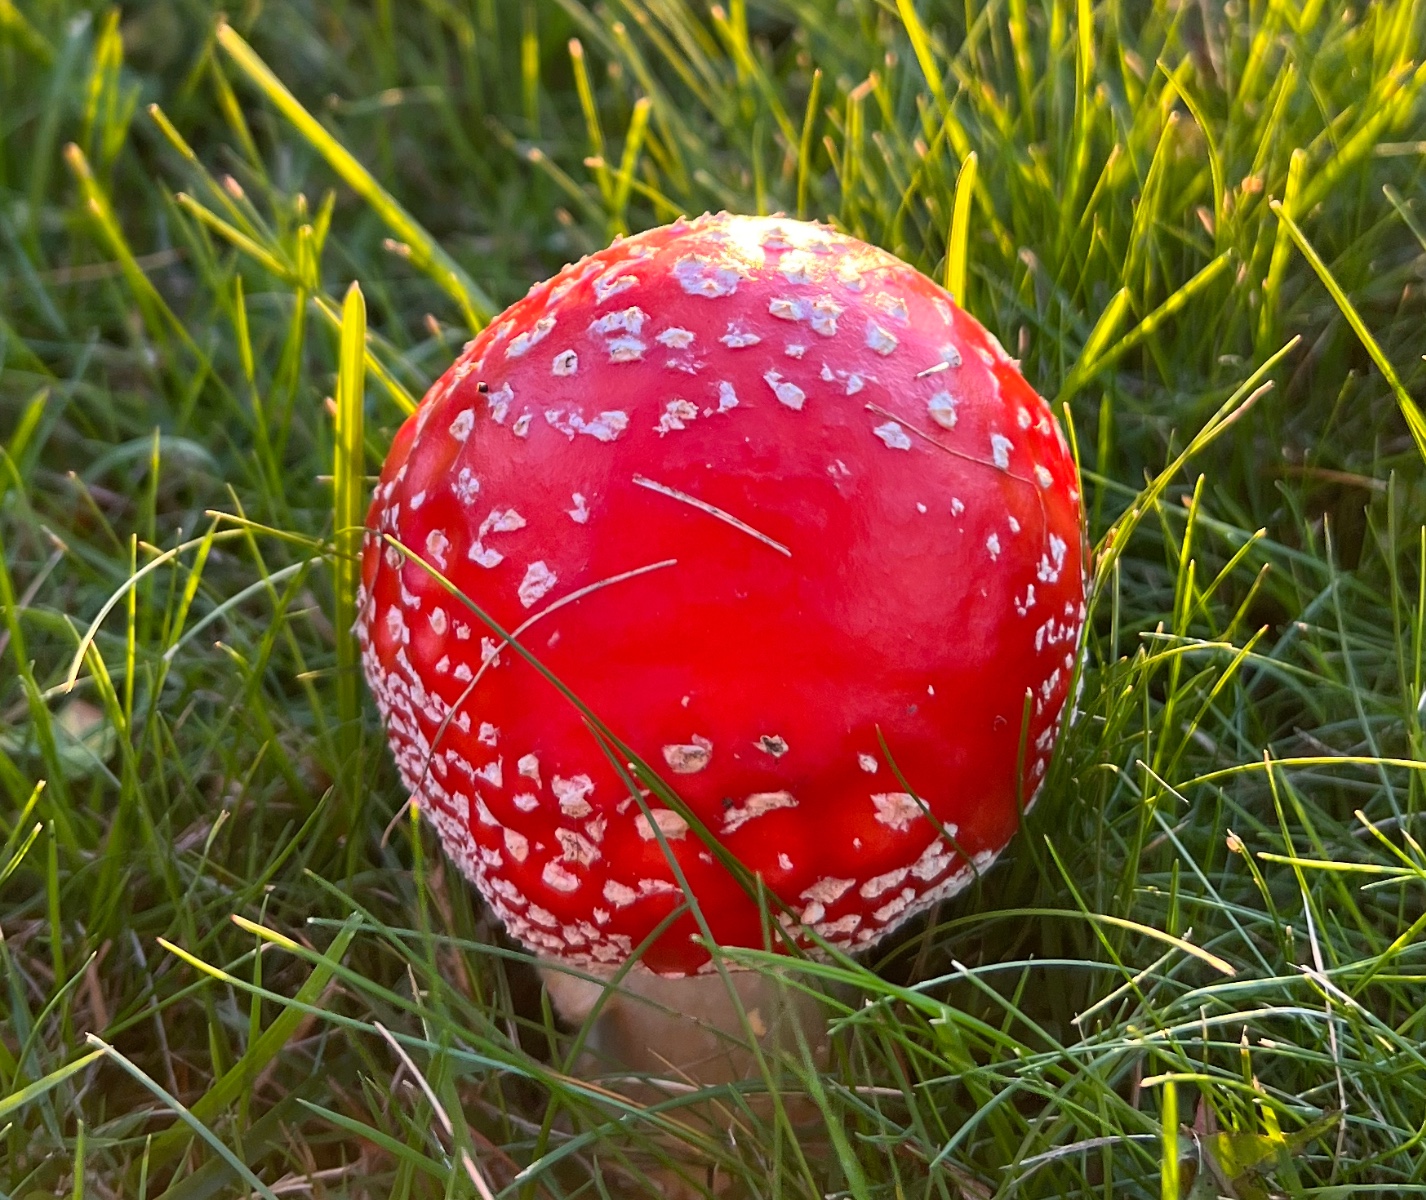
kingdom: Fungi
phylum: Basidiomycota
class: Agaricomycetes
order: Agaricales
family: Amanitaceae
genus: Amanita
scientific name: Amanita muscaria
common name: rød fluesvamp
